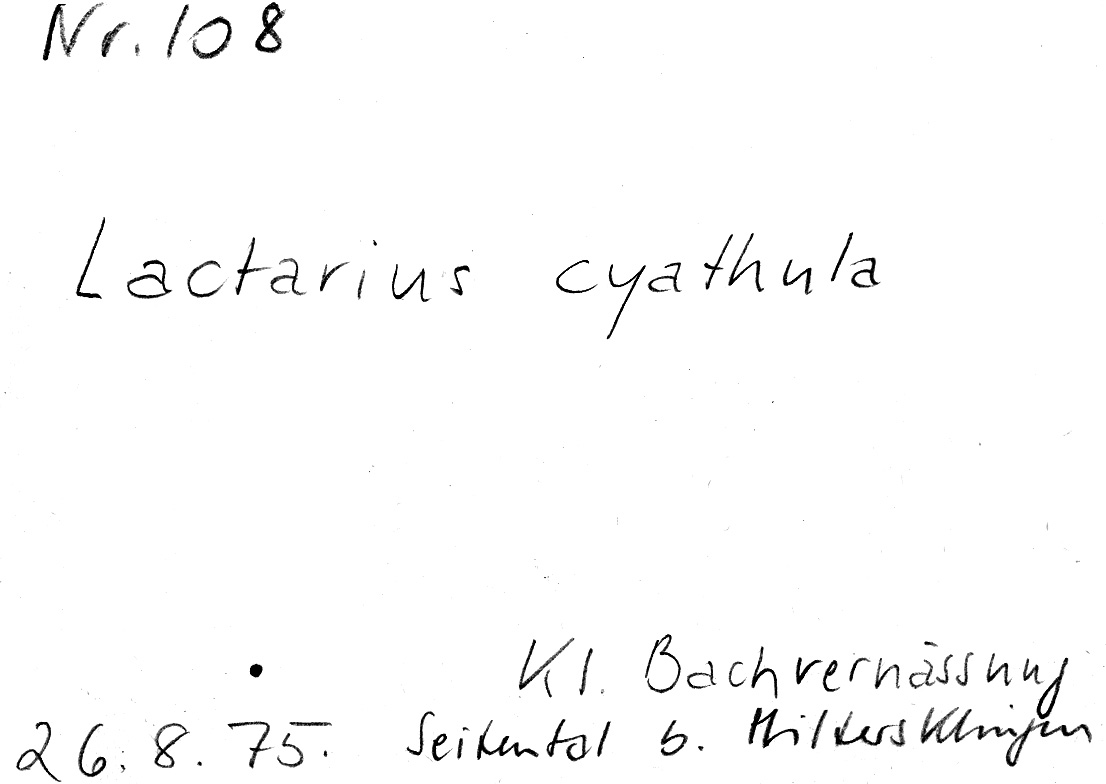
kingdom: Fungi
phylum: Basidiomycota
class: Agaricomycetes
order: Russulales
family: Russulaceae
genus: Lactarius
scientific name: Lactarius cyathula
